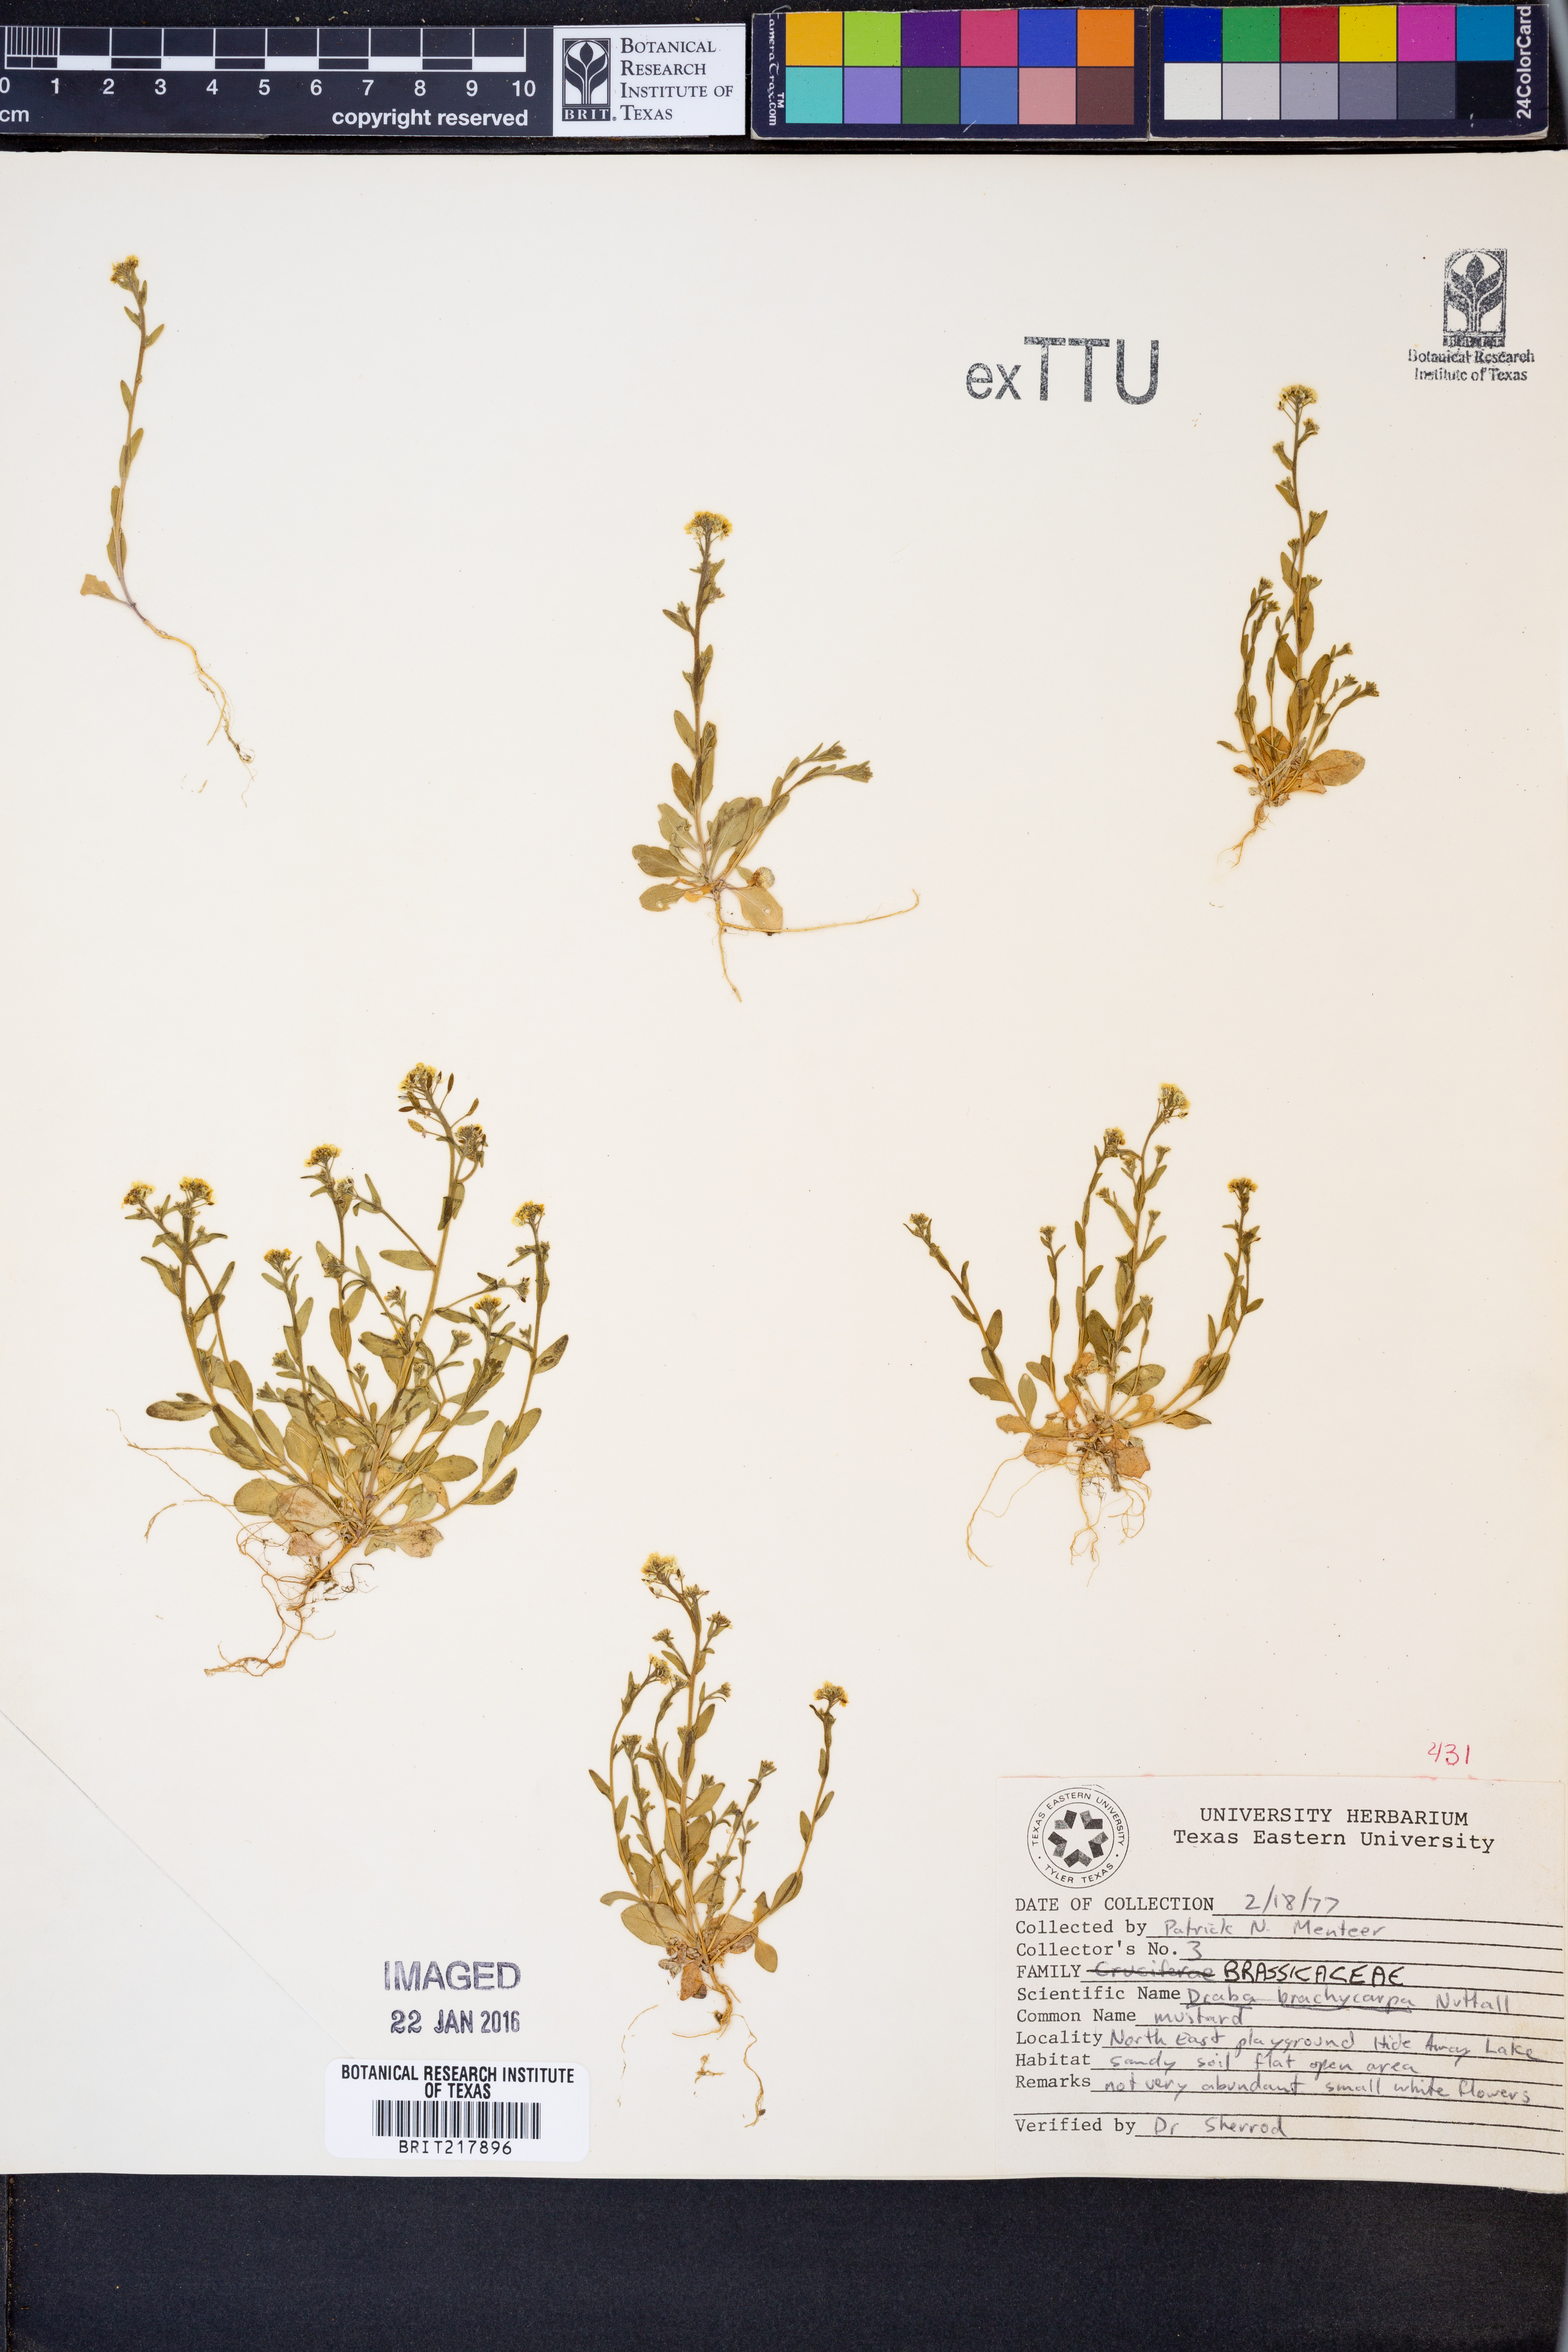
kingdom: Plantae
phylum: Tracheophyta
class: Magnoliopsida
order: Brassicales
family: Brassicaceae
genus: Abdra
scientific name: Abdra brachycarpa
